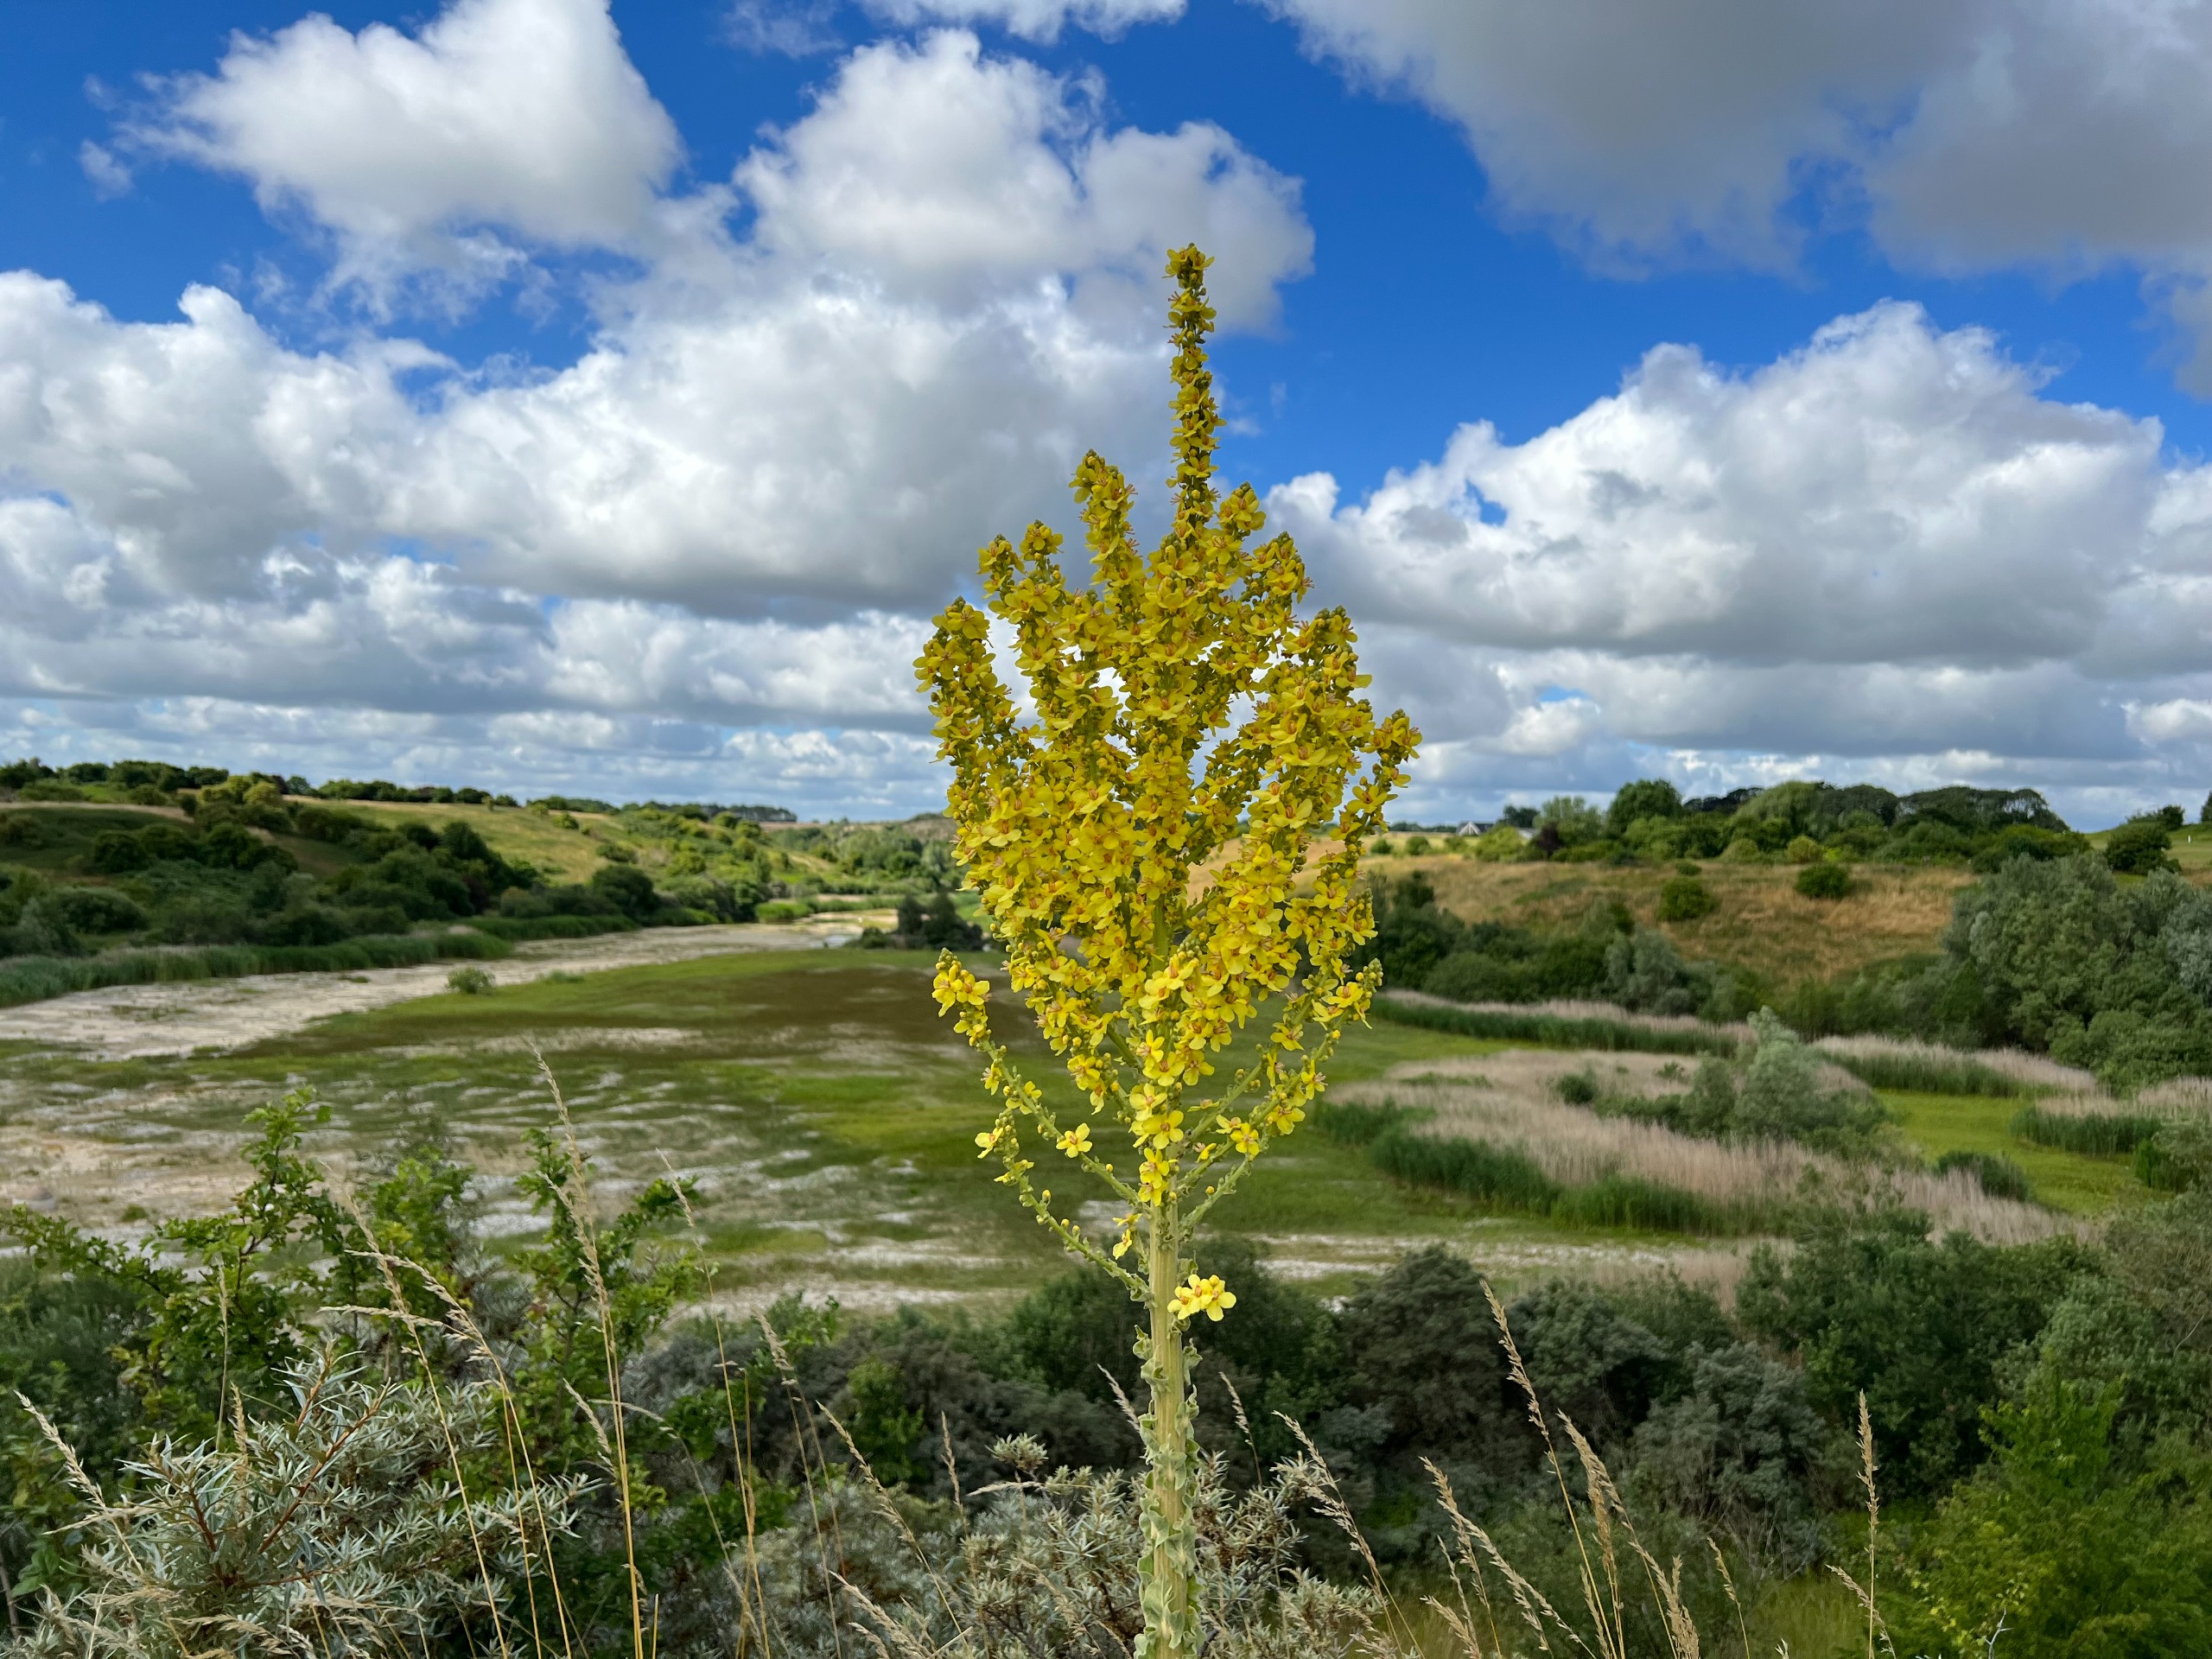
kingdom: Plantae
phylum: Tracheophyta
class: Magnoliopsida
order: Lamiales
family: Scrophulariaceae
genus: Verbascum
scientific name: Verbascum speciosum
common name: Kandelaber-kongelys
